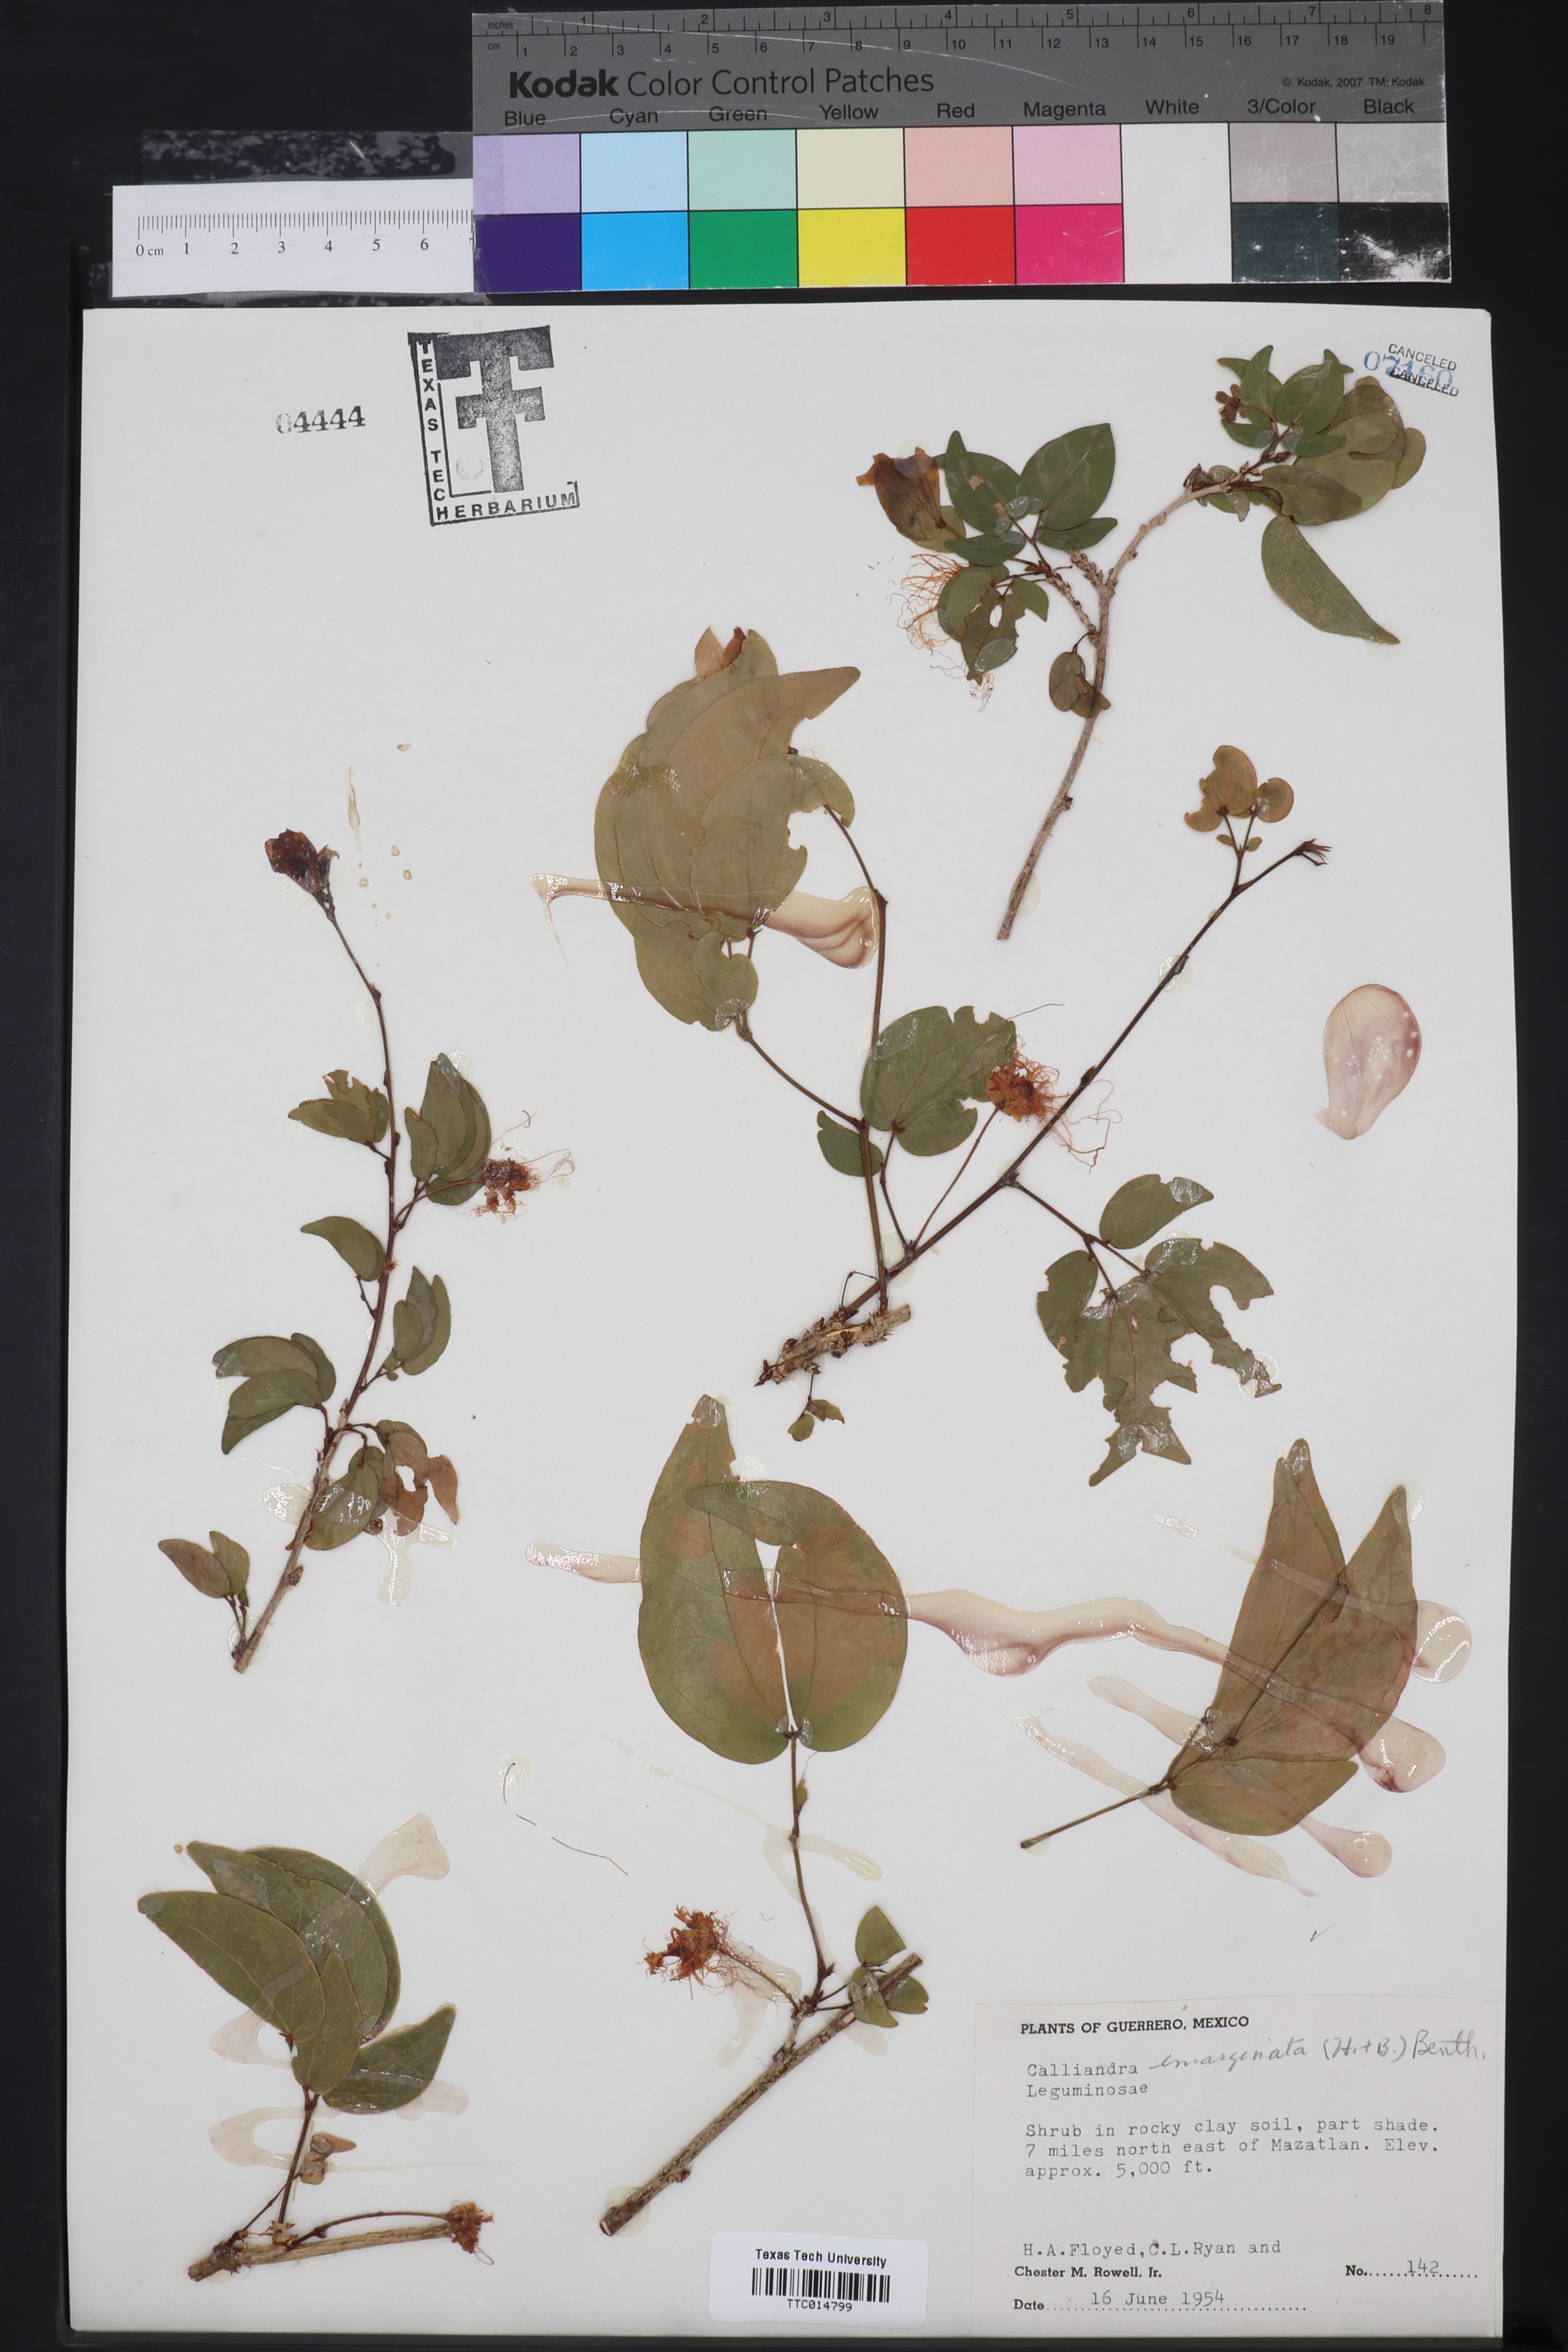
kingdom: Plantae
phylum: Tracheophyta
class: Magnoliopsida
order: Fabales
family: Fabaceae
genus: Calliandra
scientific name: Calliandra tergemina
